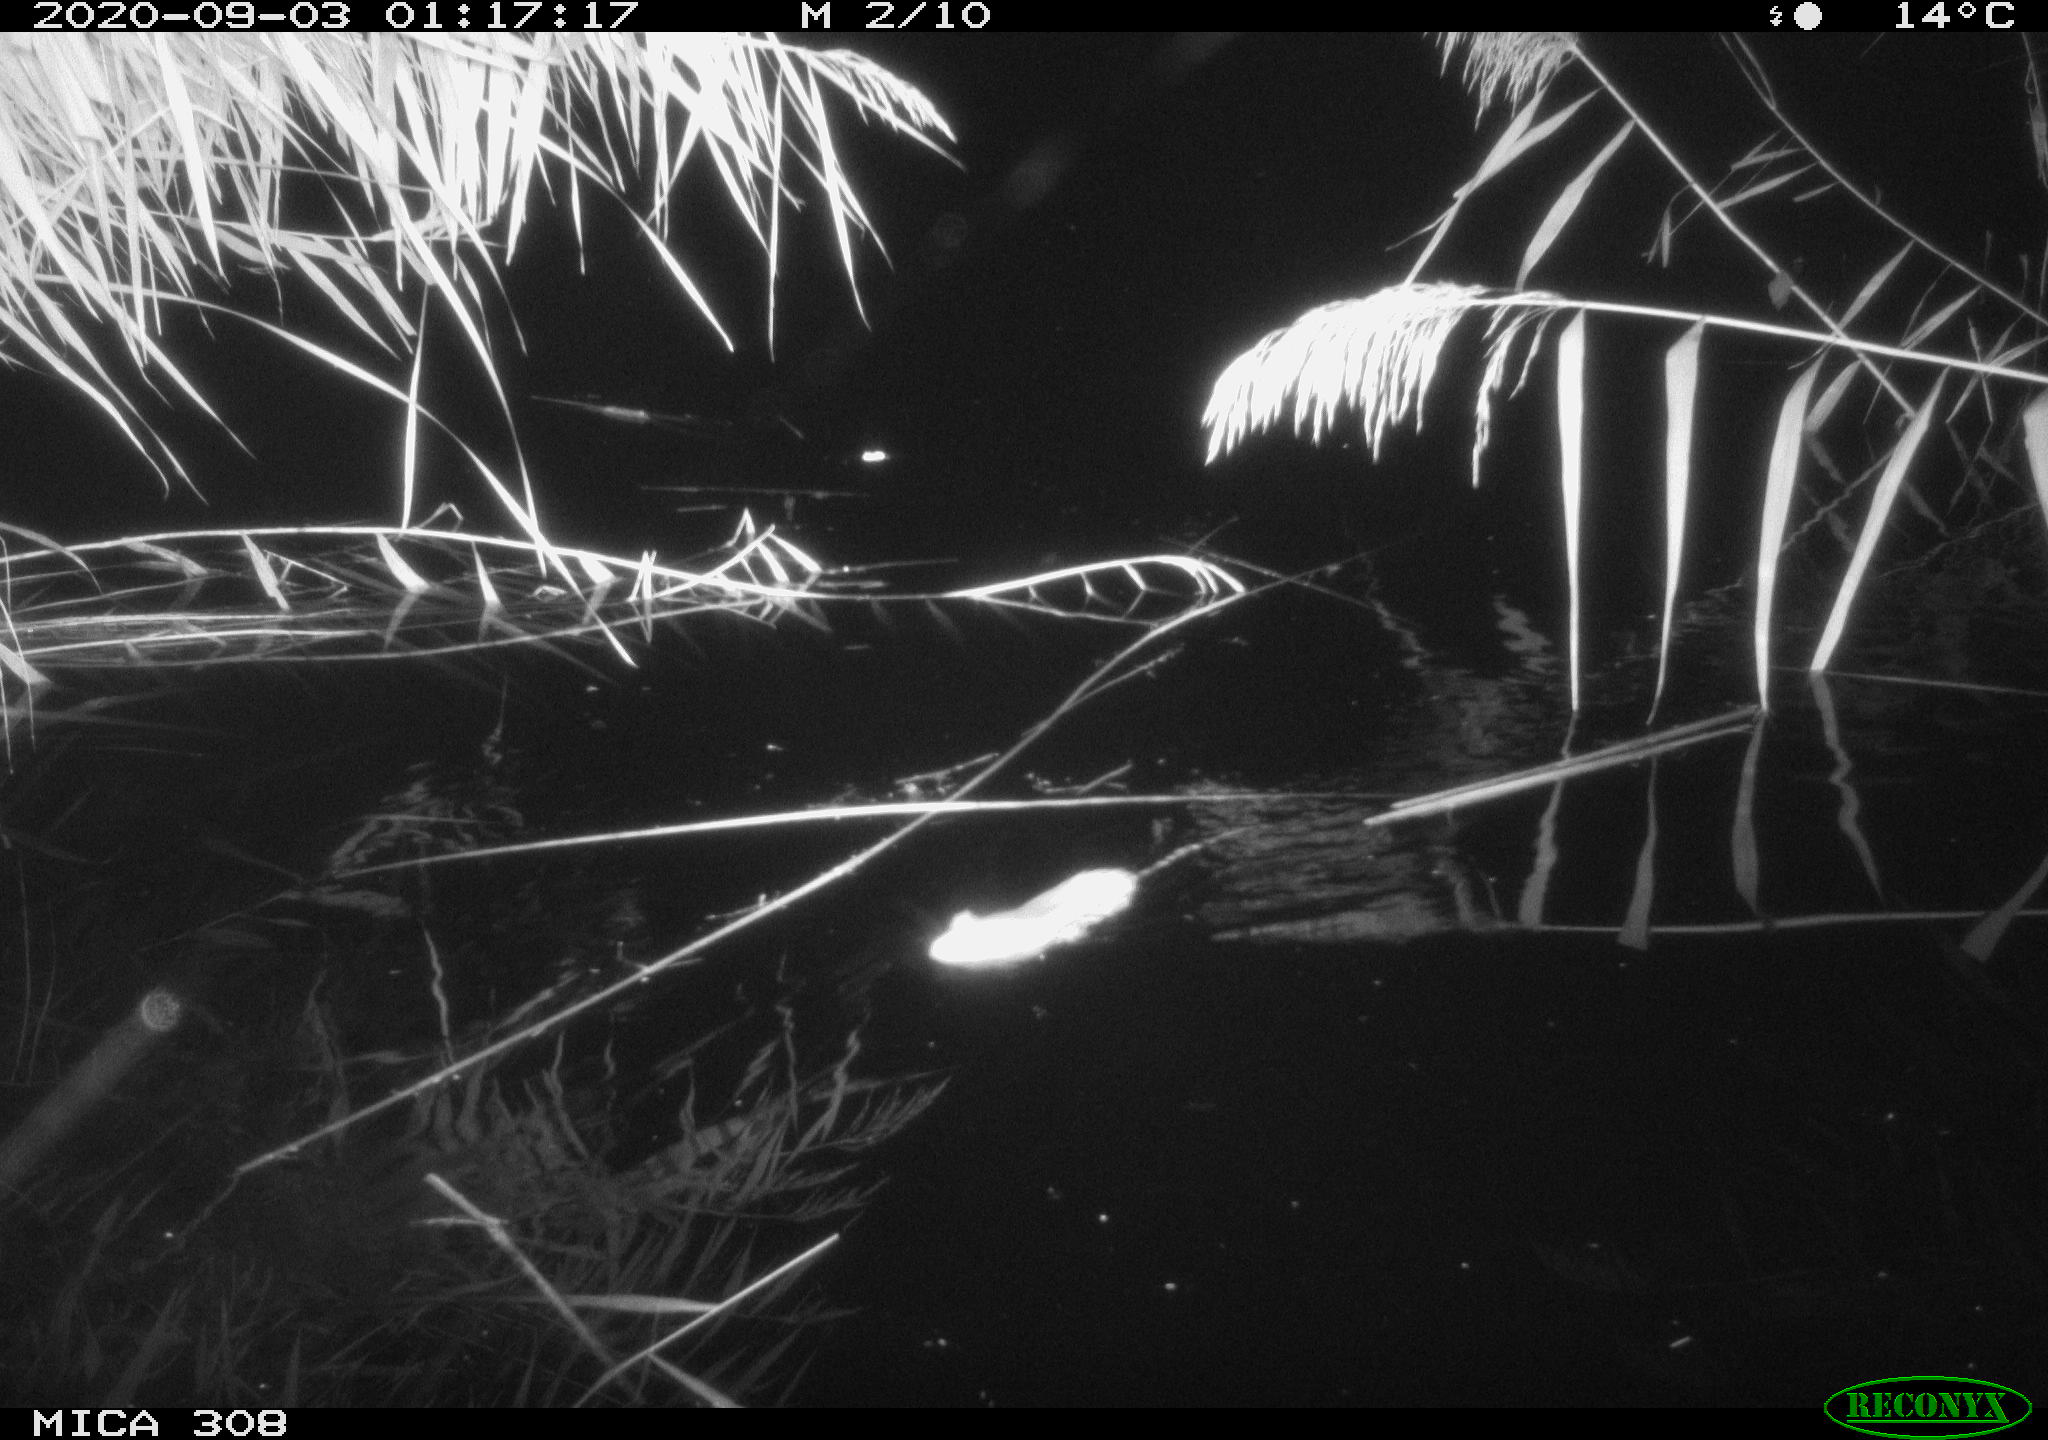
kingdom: Animalia
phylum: Chordata
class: Mammalia
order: Rodentia
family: Muridae
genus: Rattus
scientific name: Rattus norvegicus
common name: Brown rat
